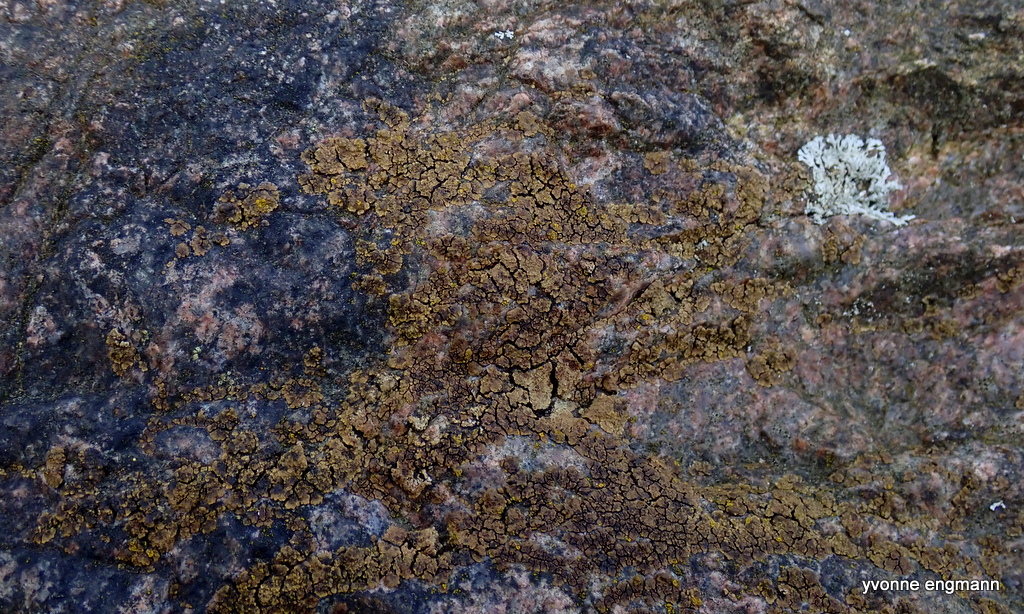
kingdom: Fungi
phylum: Ascomycota
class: Lecanoromycetes
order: Acarosporales
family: Acarosporaceae
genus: Acarospora
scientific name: Acarospora fuscata
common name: brun småsporelav
